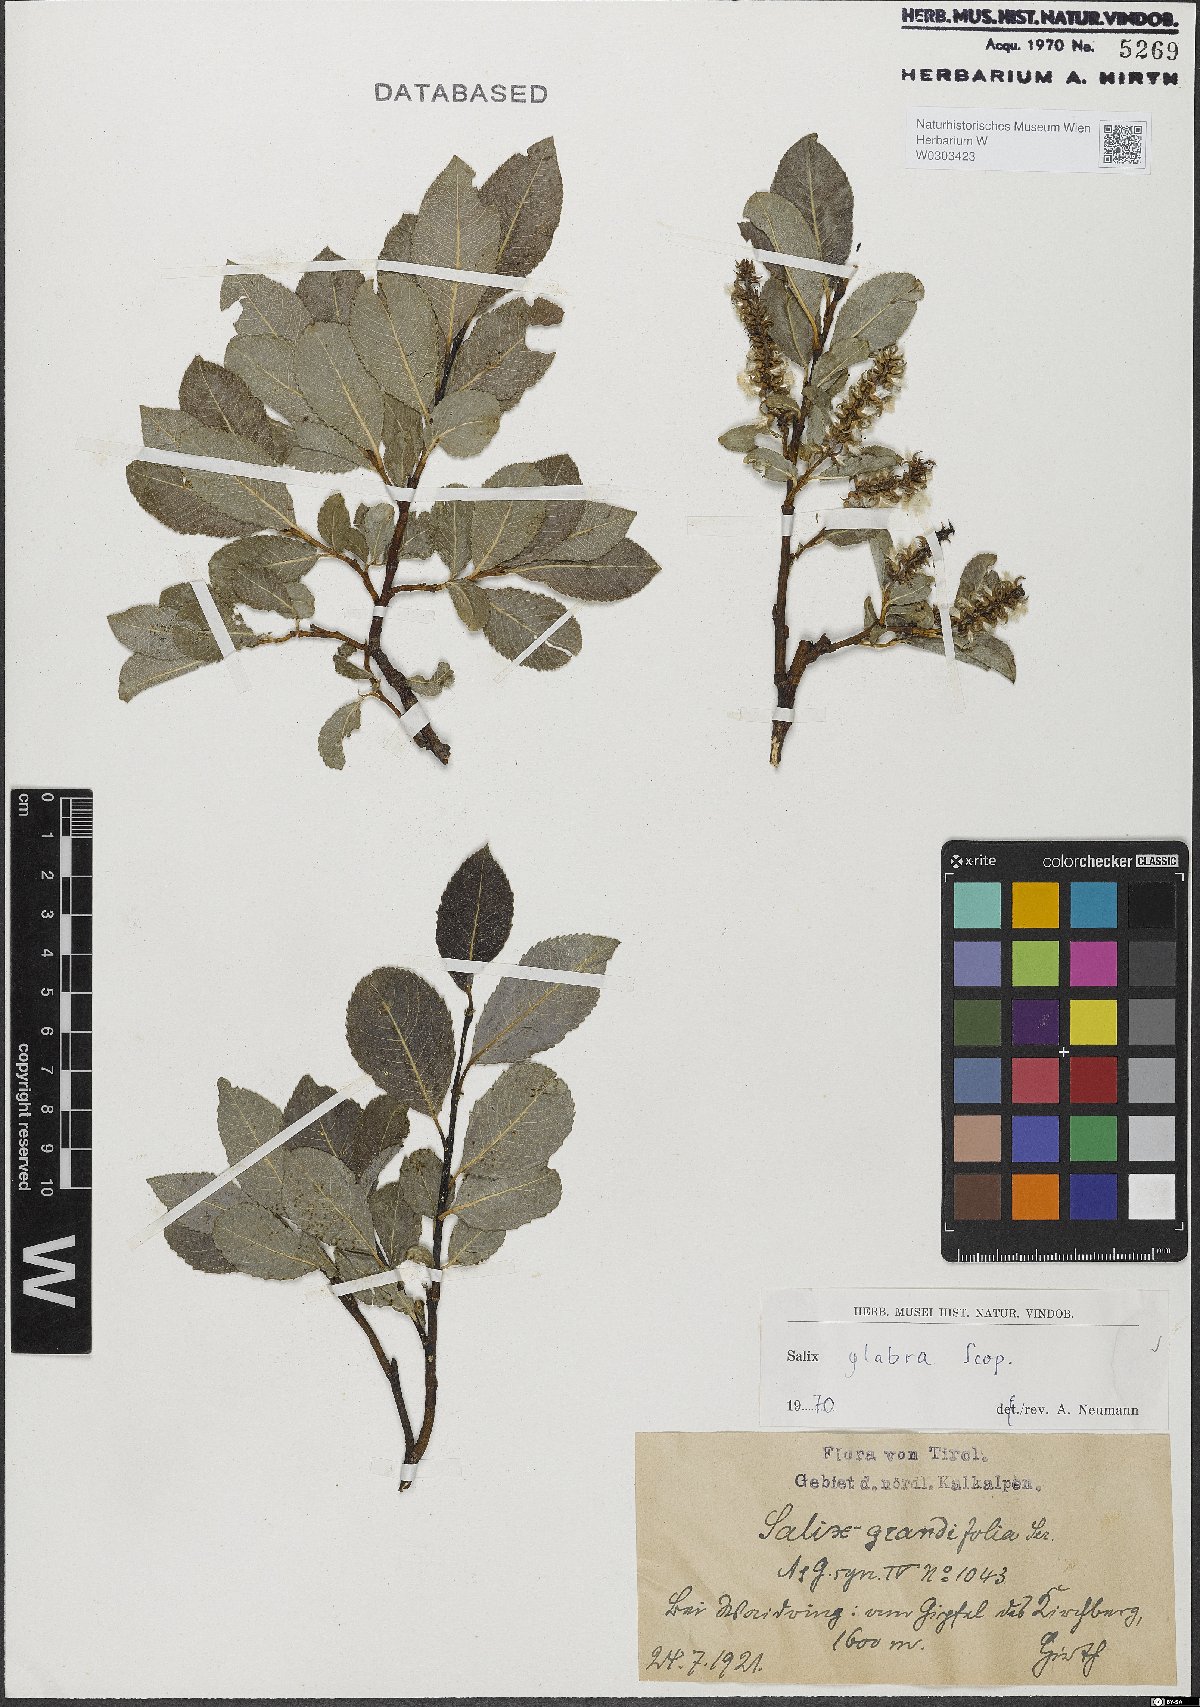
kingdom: Plantae
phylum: Tracheophyta
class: Magnoliopsida
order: Malpighiales
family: Salicaceae
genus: Salix
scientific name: Salix glabra
